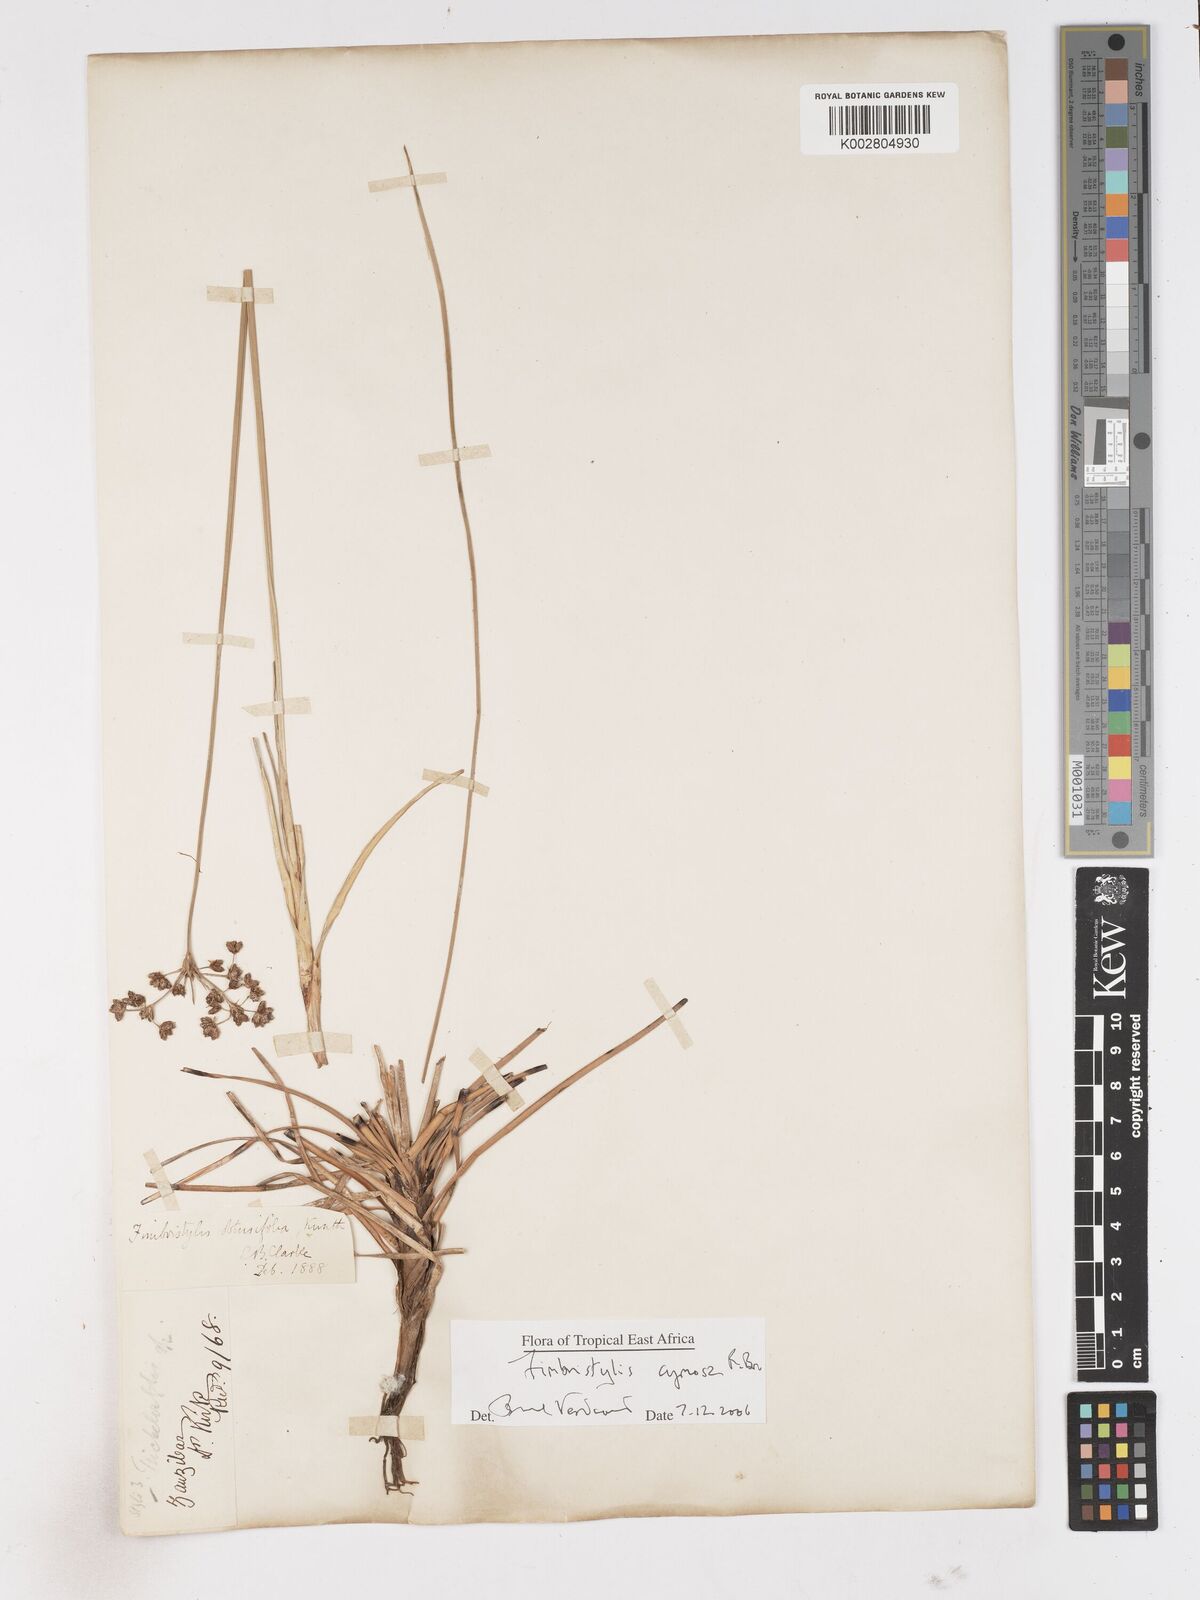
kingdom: Plantae
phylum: Tracheophyta
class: Liliopsida
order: Poales
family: Cyperaceae
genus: Fimbristylis
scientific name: Fimbristylis cymosa
